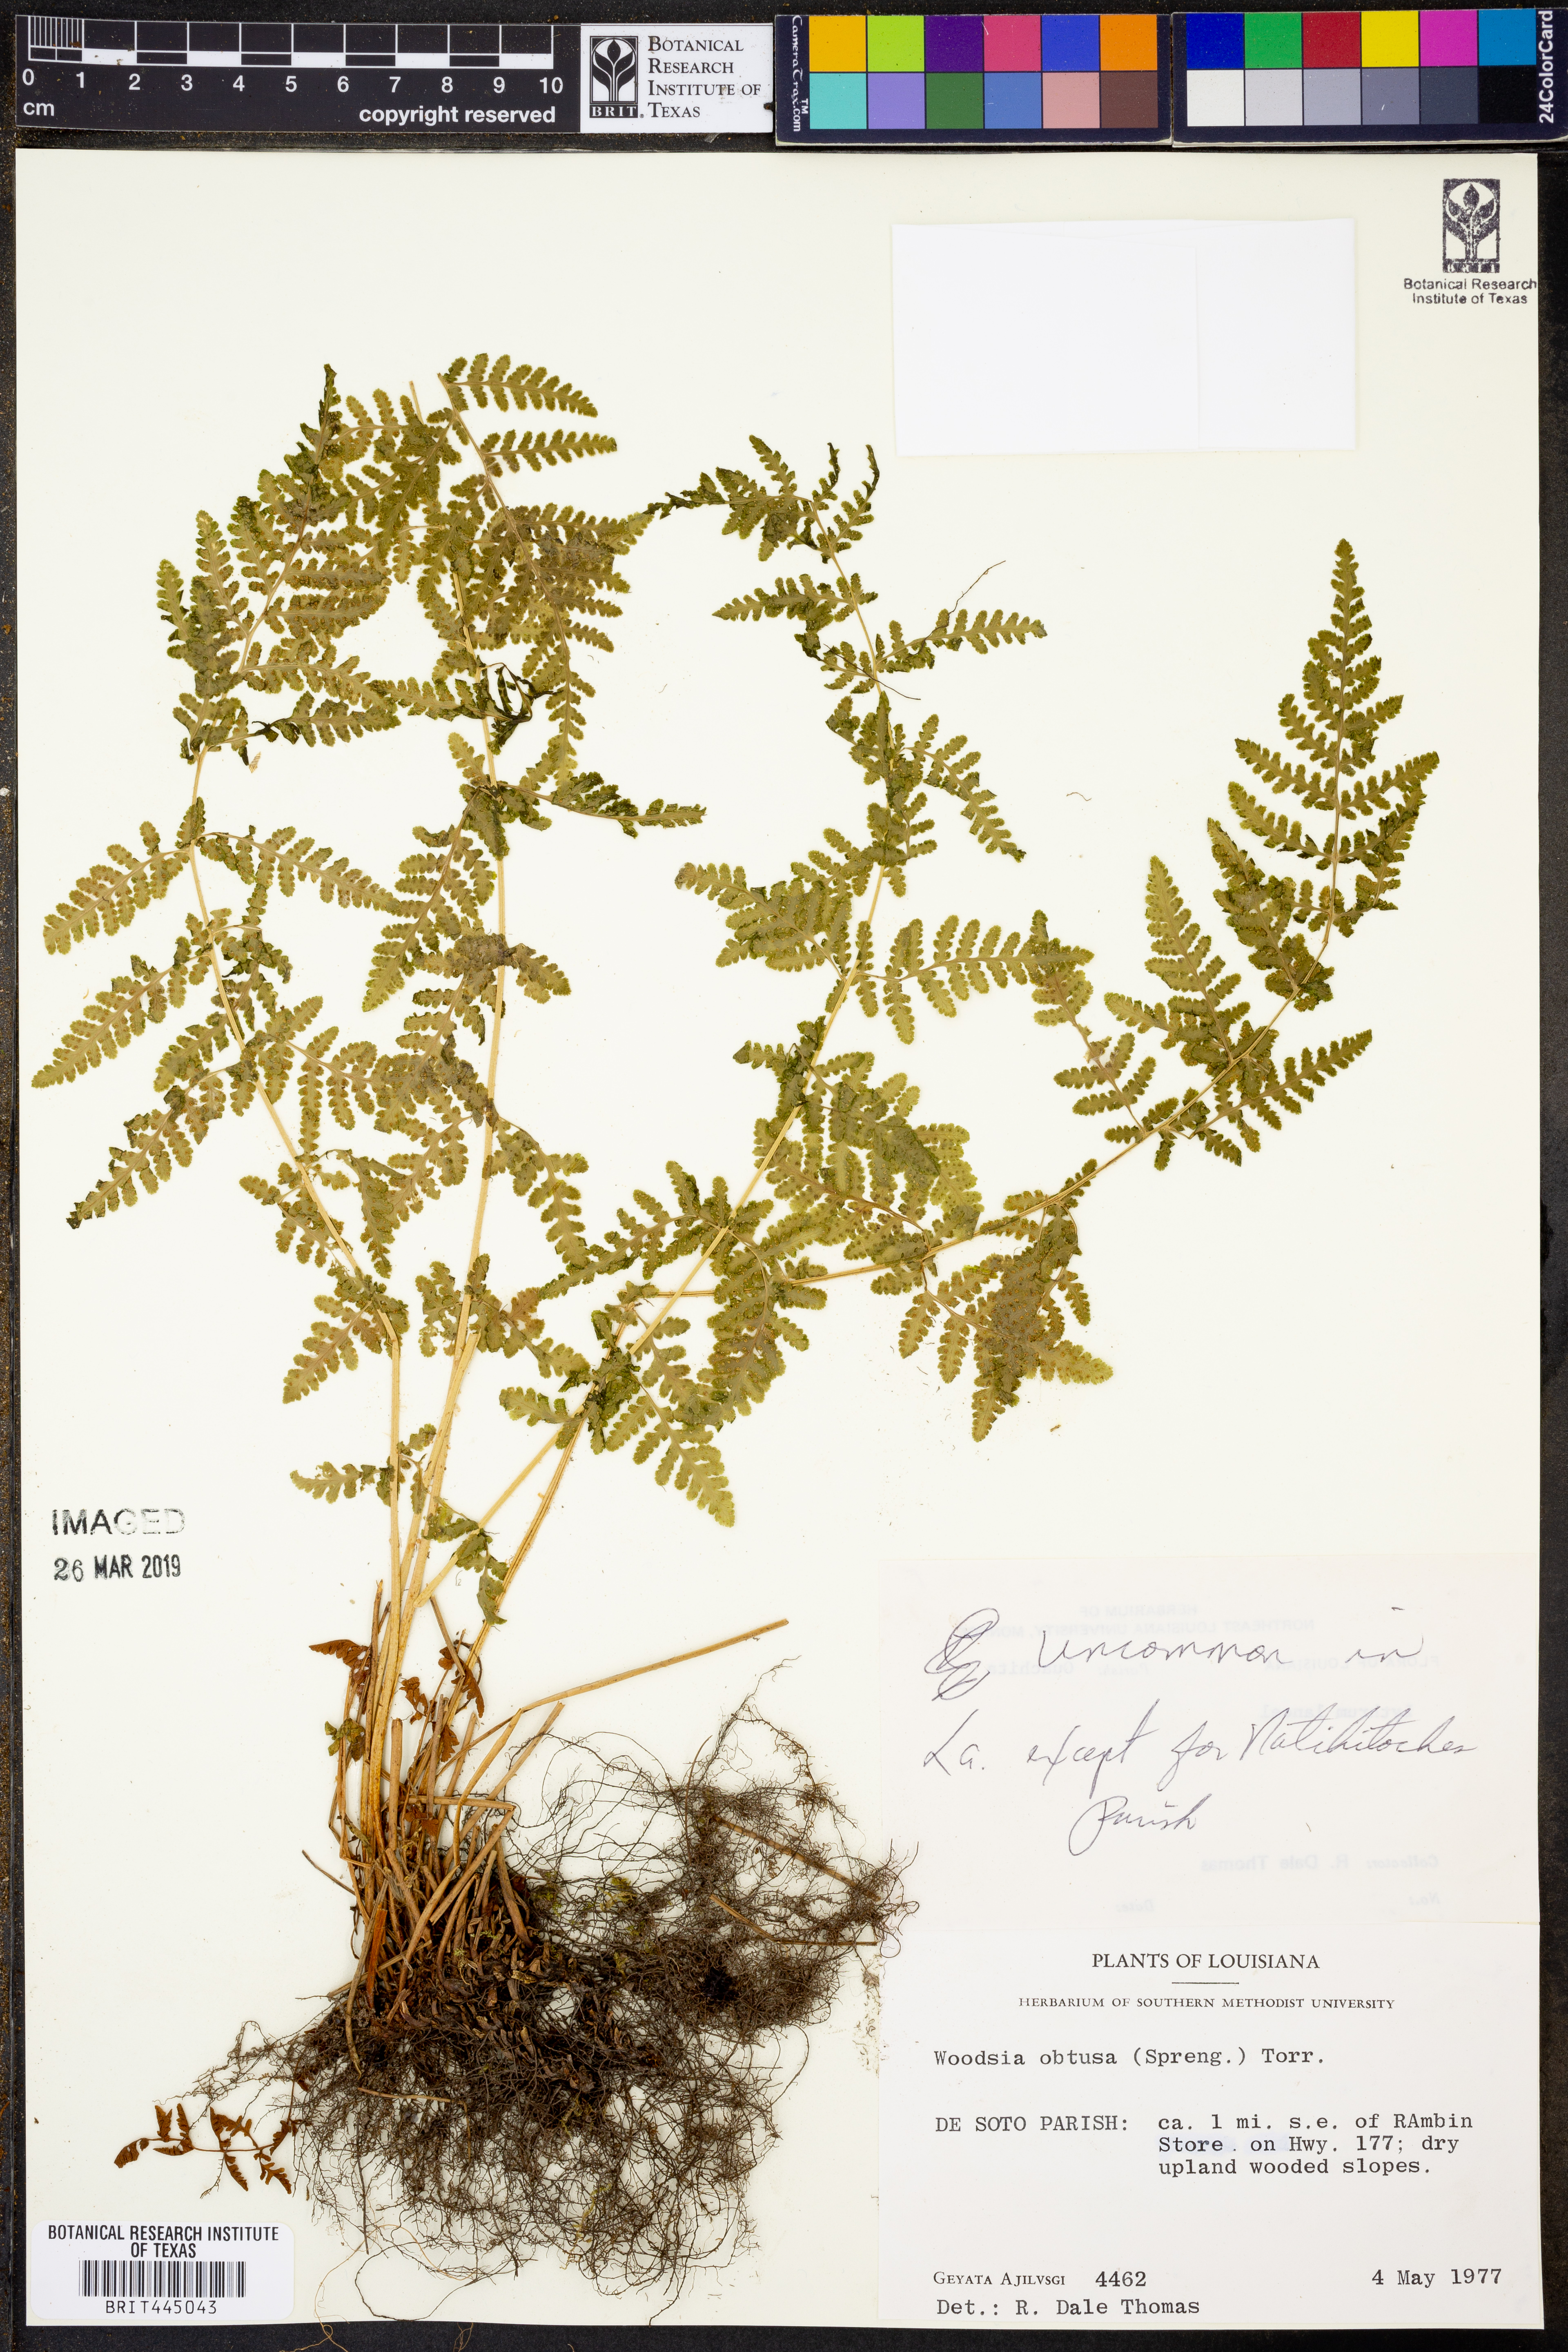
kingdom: Plantae
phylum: Tracheophyta
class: Polypodiopsida
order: Polypodiales
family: Woodsiaceae
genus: Physematium
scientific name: Physematium obtusum
